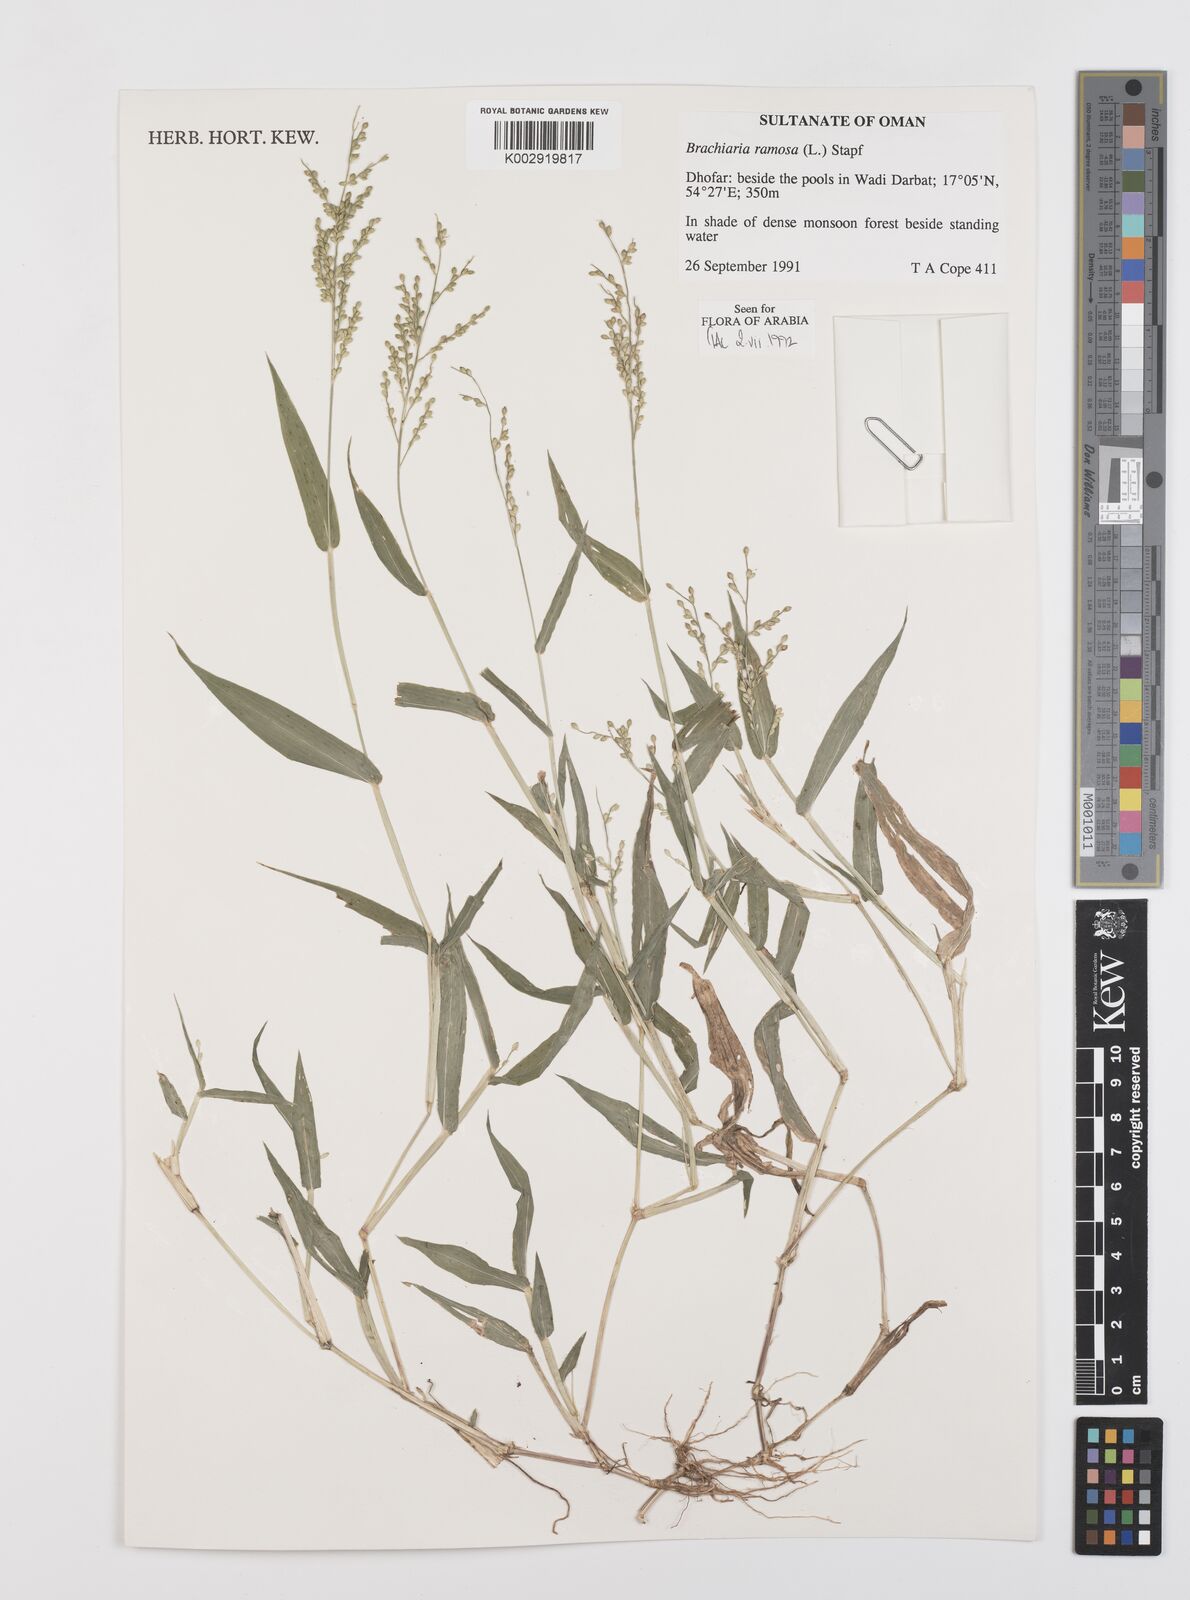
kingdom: Plantae
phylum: Tracheophyta
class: Liliopsida
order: Poales
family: Poaceae
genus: Urochloa
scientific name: Urochloa ramosa
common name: Browntop millet
